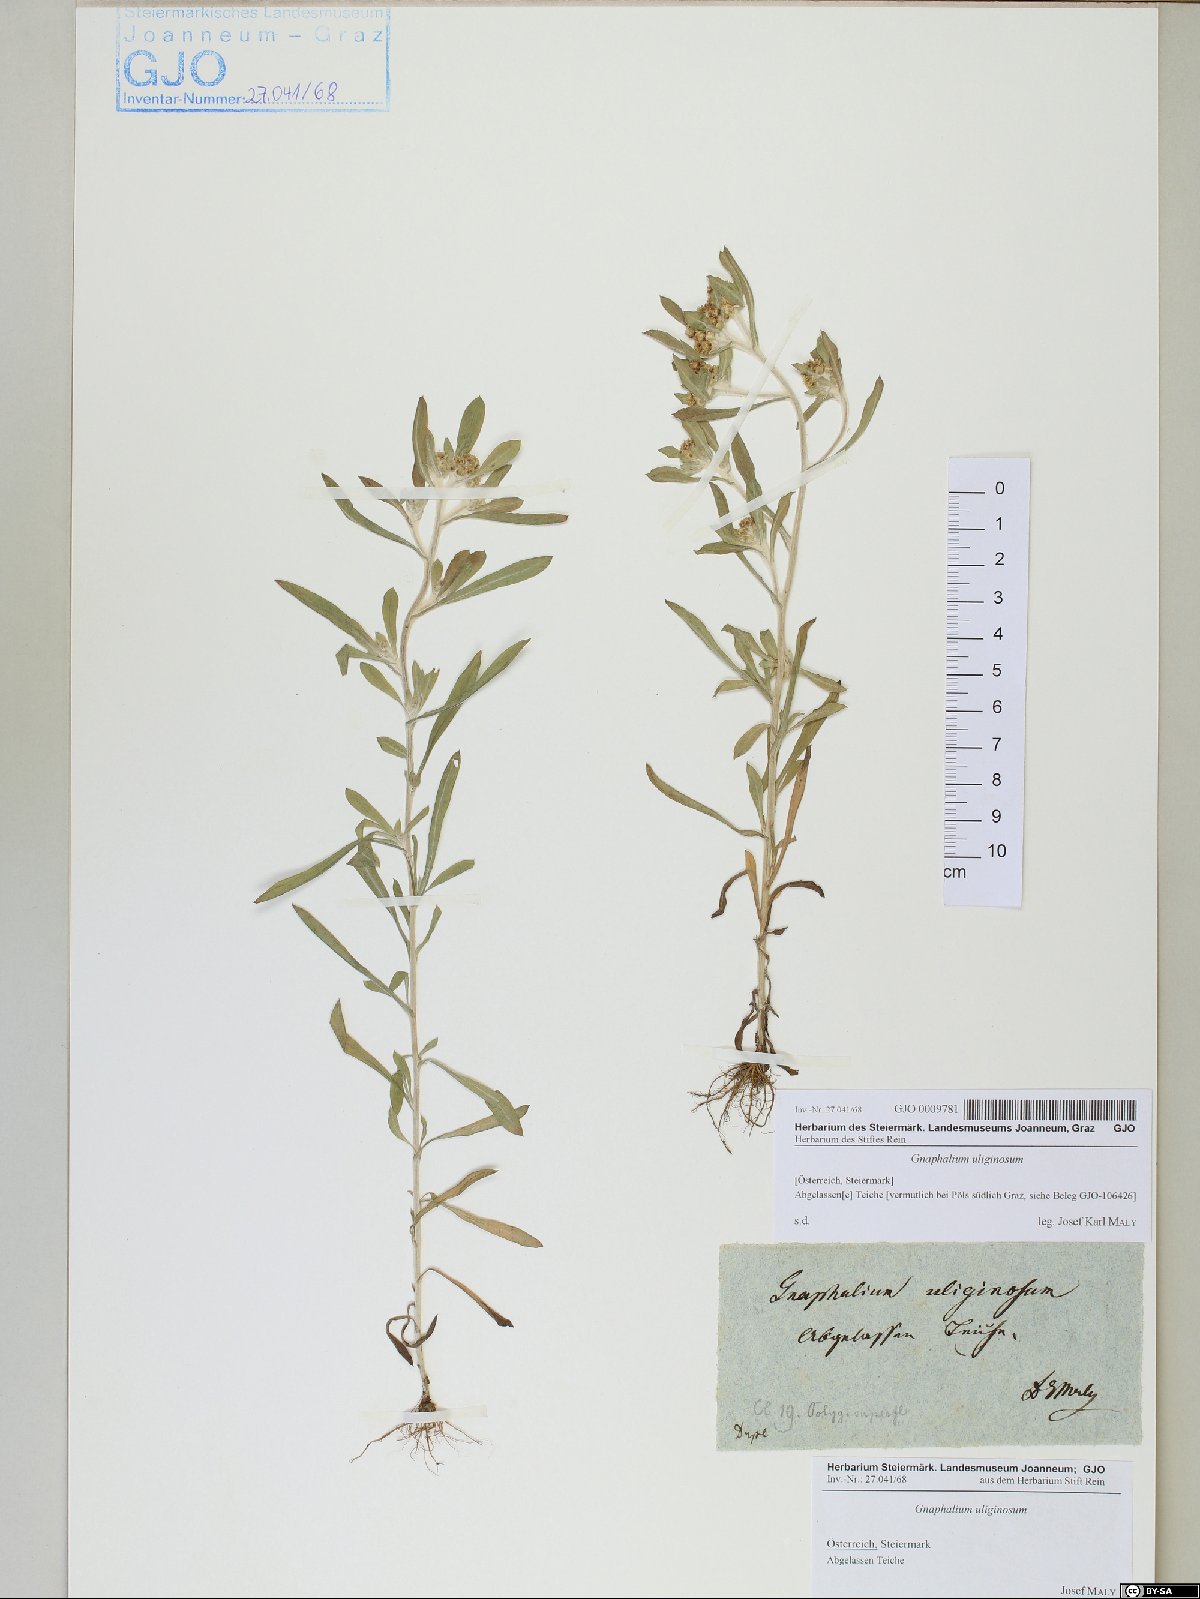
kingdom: Plantae
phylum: Tracheophyta
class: Magnoliopsida
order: Asterales
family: Asteraceae
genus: Gnaphalium
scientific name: Gnaphalium uliginosum
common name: Marsh cudweed
